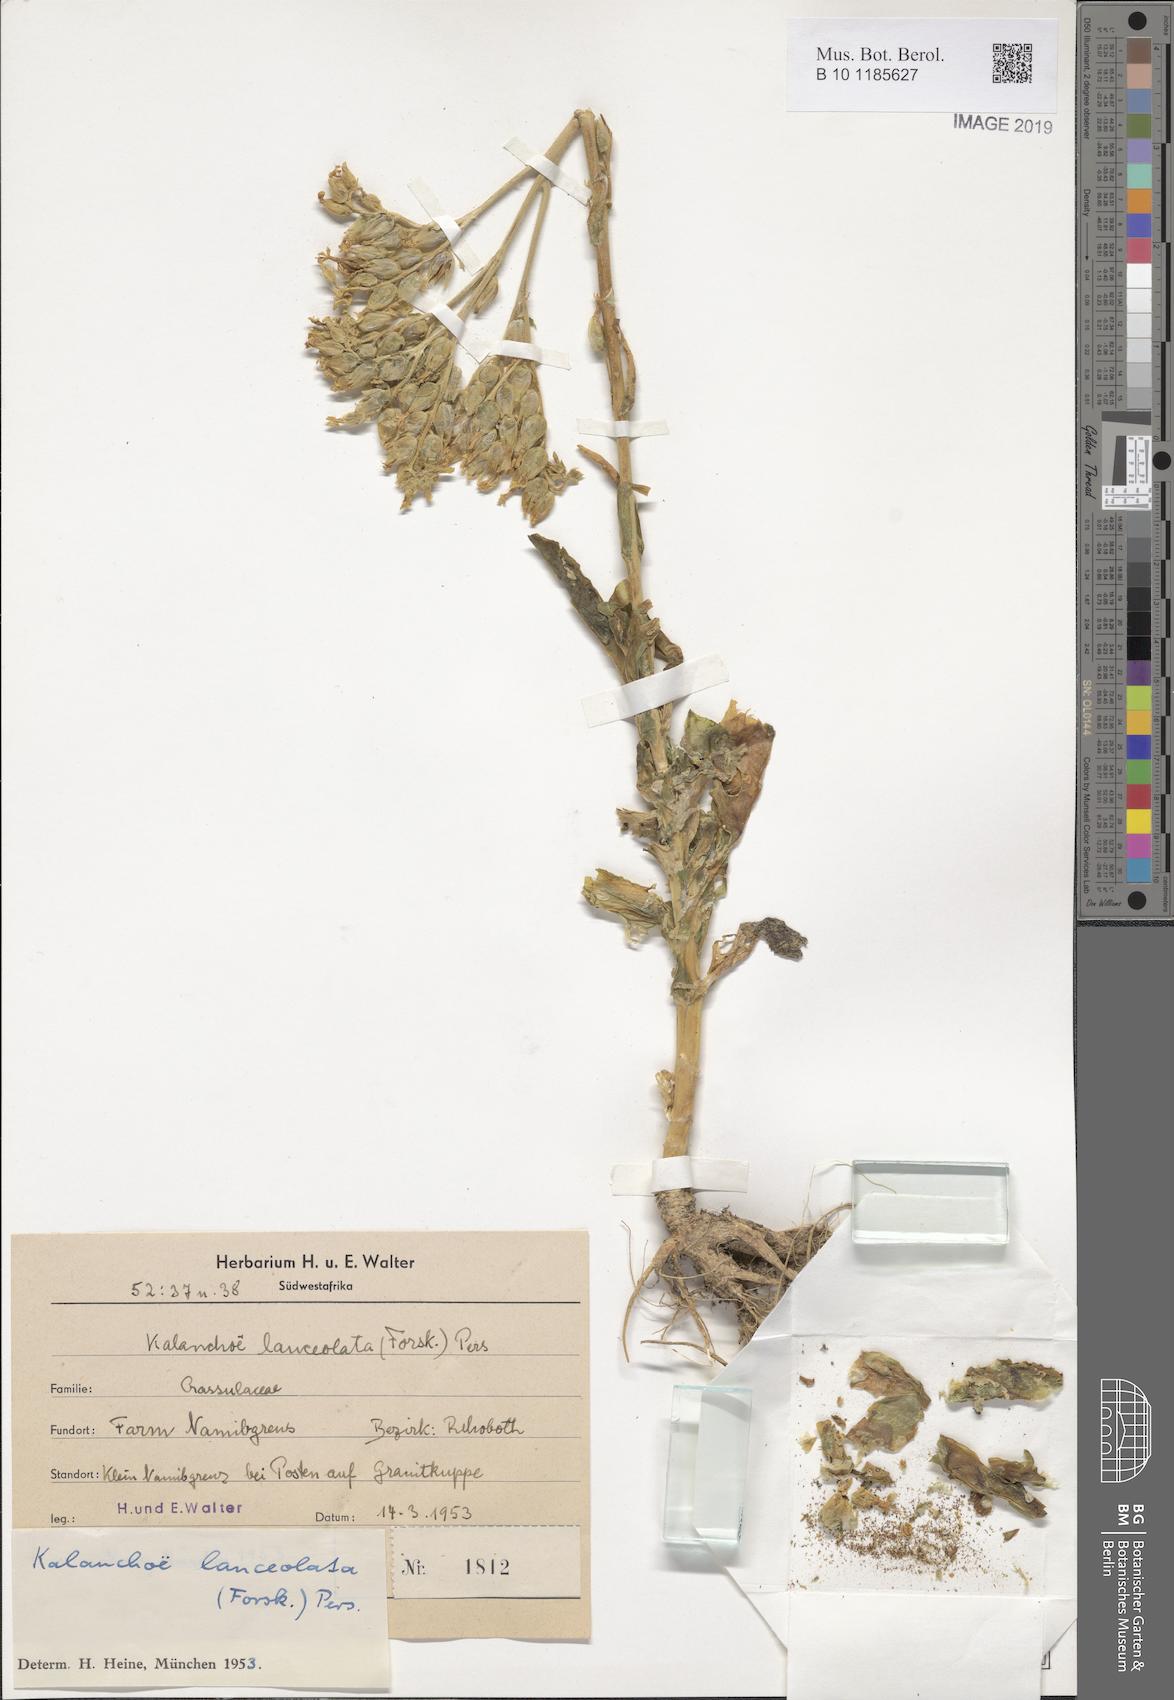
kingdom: Plantae
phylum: Tracheophyta
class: Magnoliopsida
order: Saxifragales
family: Crassulaceae
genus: Kalanchoe
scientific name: Kalanchoe lanceolata
